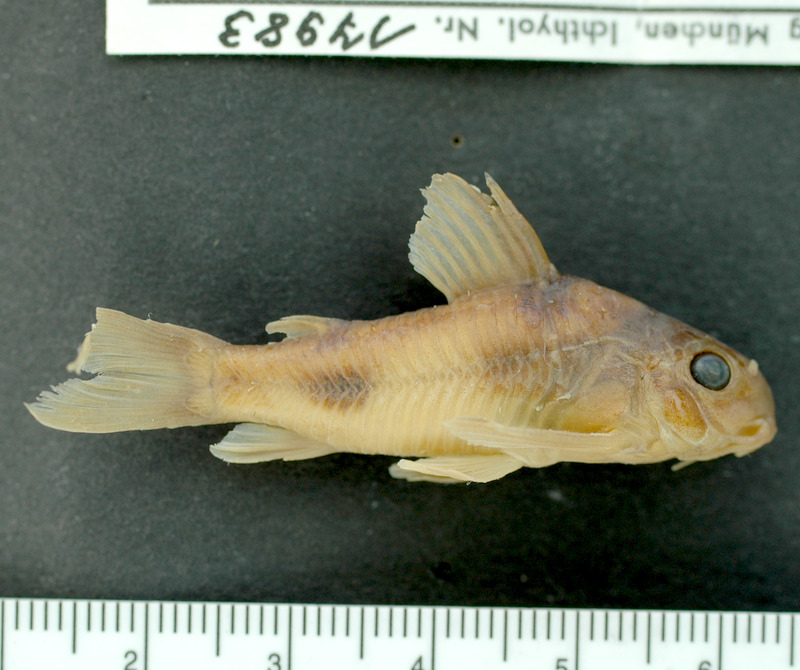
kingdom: Animalia
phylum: Chordata
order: Siluriformes
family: Callichthyidae
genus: Corydoras
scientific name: Corydoras ehrhardti
